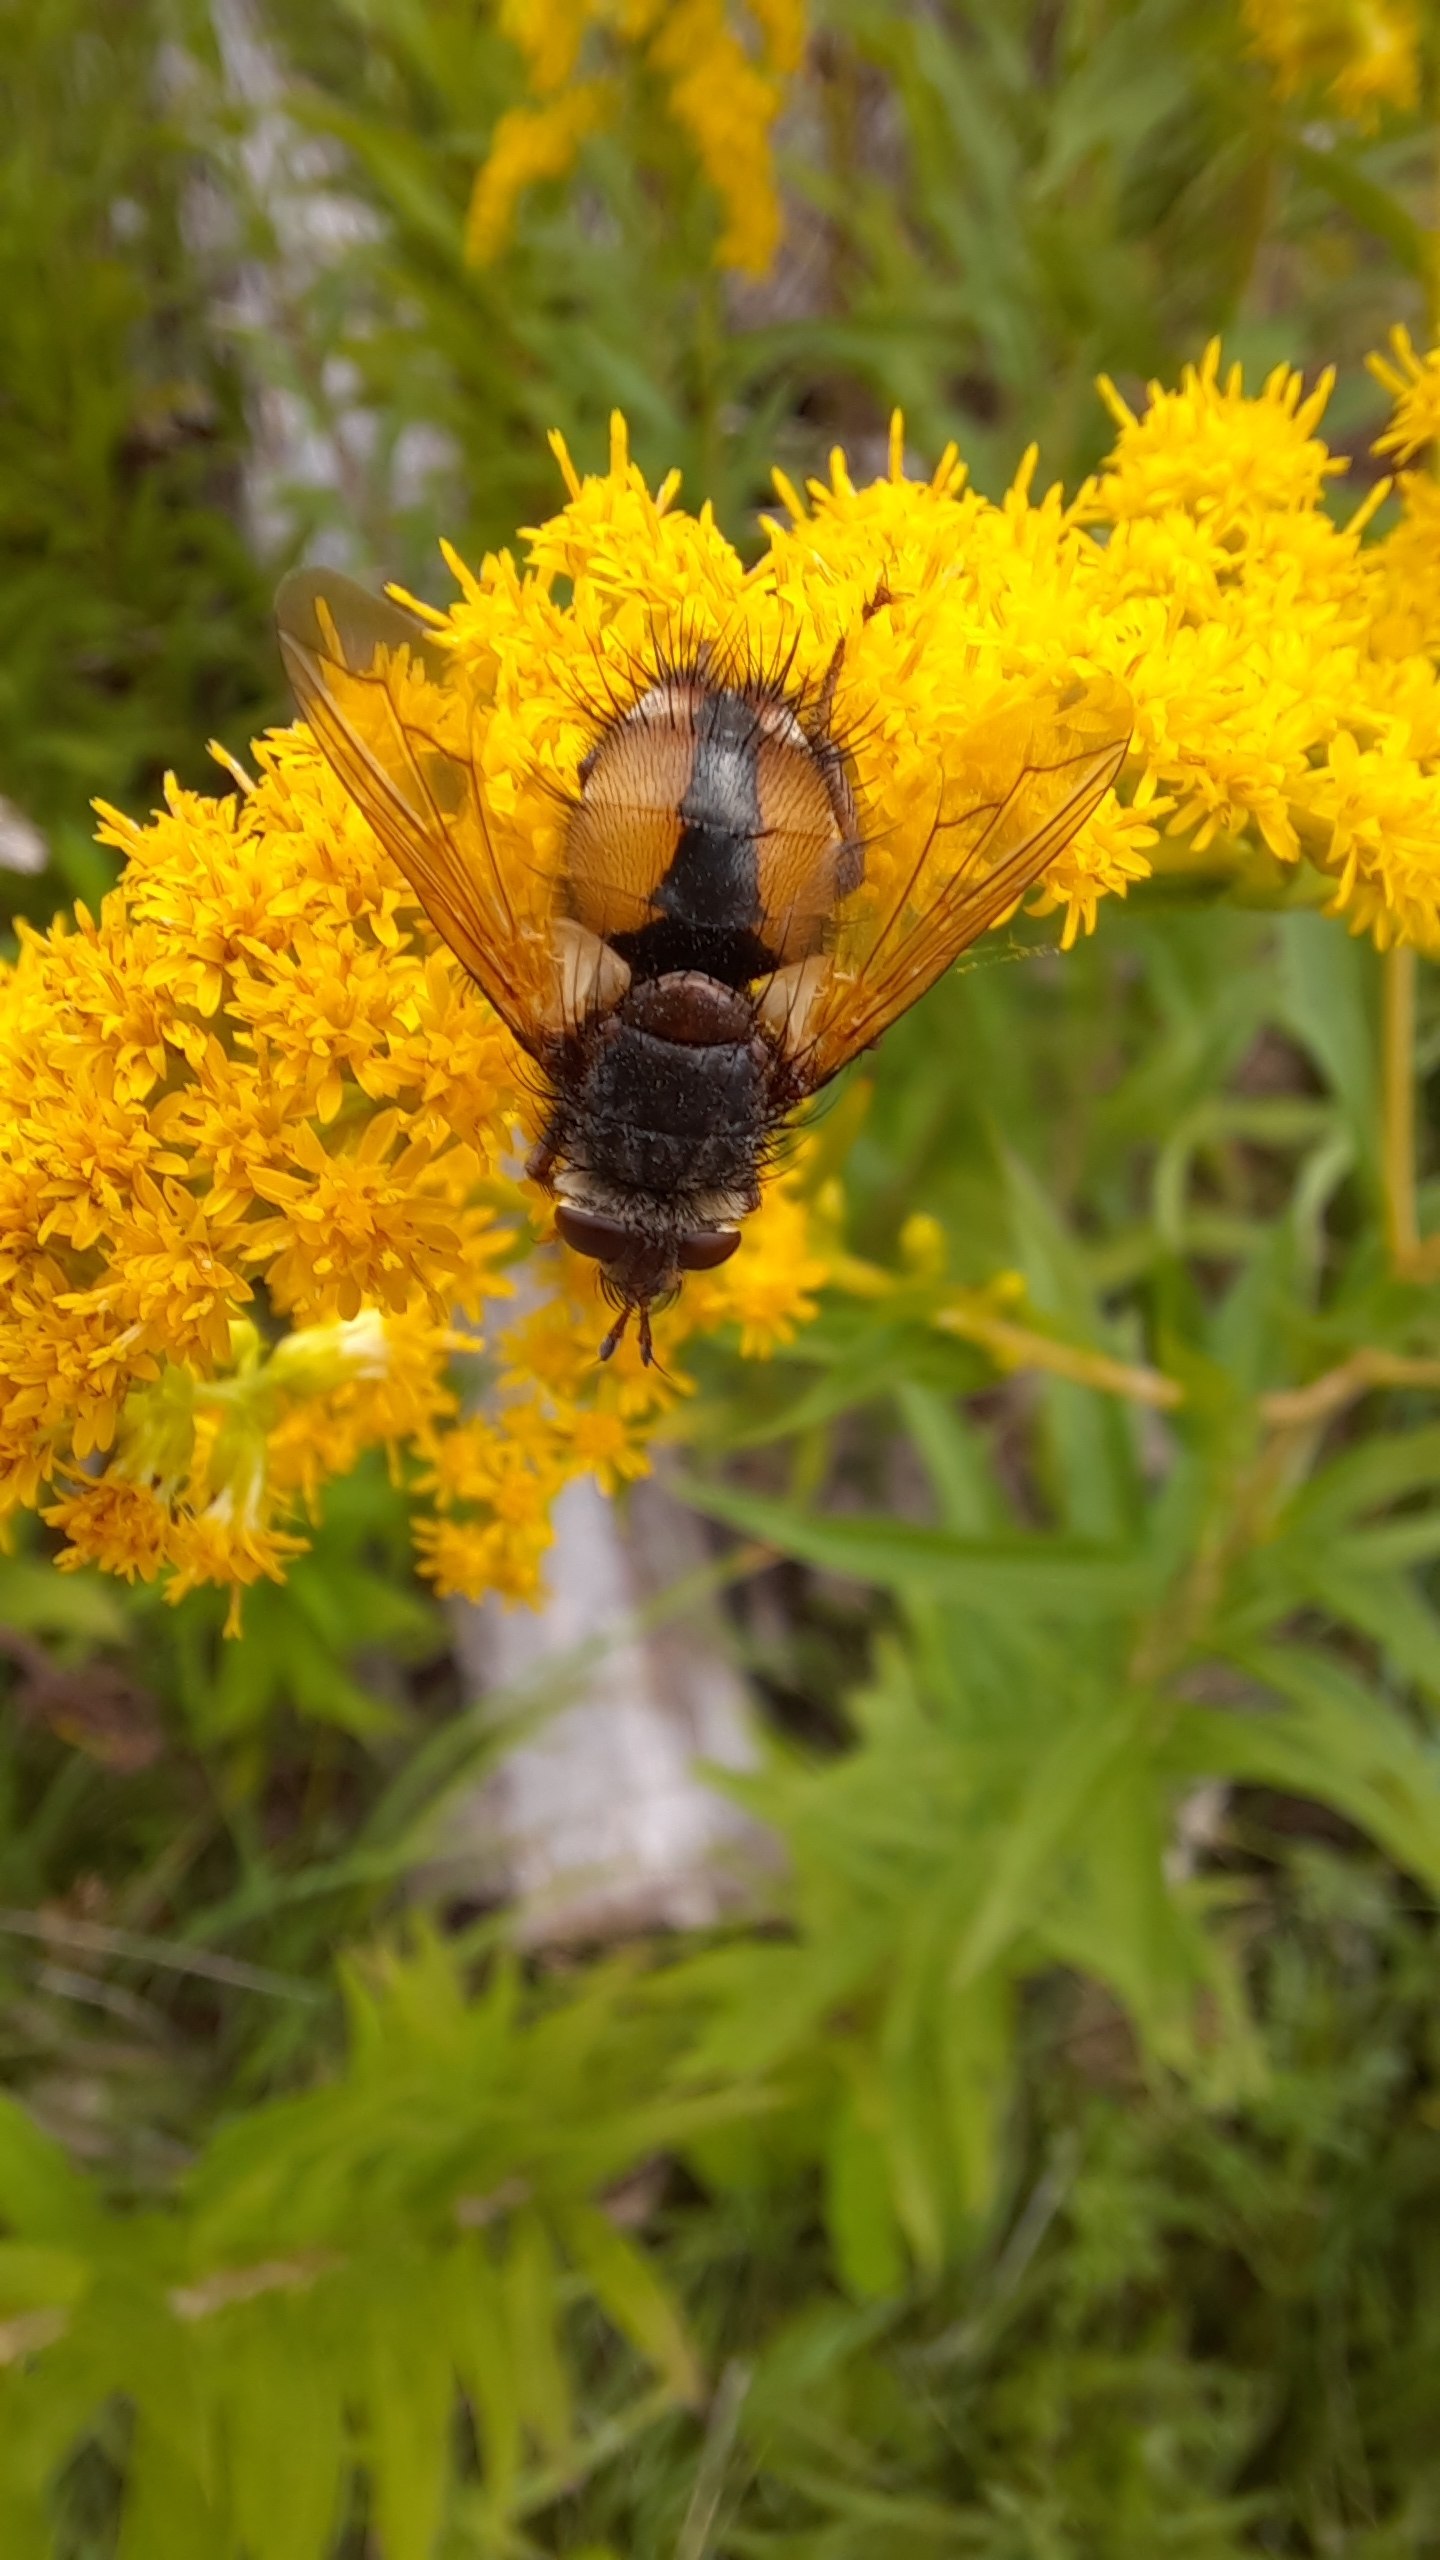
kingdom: Animalia
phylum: Arthropoda
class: Insecta
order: Diptera
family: Tachinidae
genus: Tachina
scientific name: Tachina fera
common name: Mellemfluen oskar
